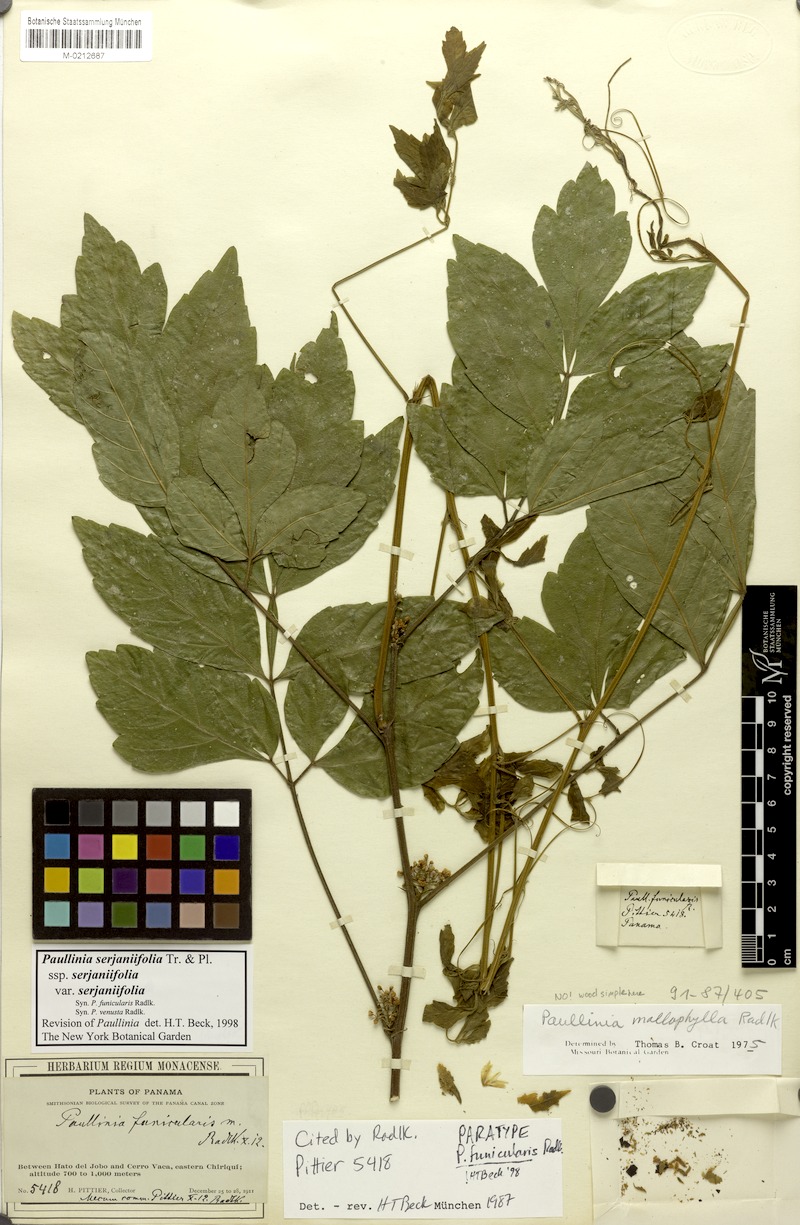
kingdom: Plantae
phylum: Tracheophyta
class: Magnoliopsida
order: Sapindales
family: Sapindaceae
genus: Paullinia
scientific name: Paullinia serjaniifolia
